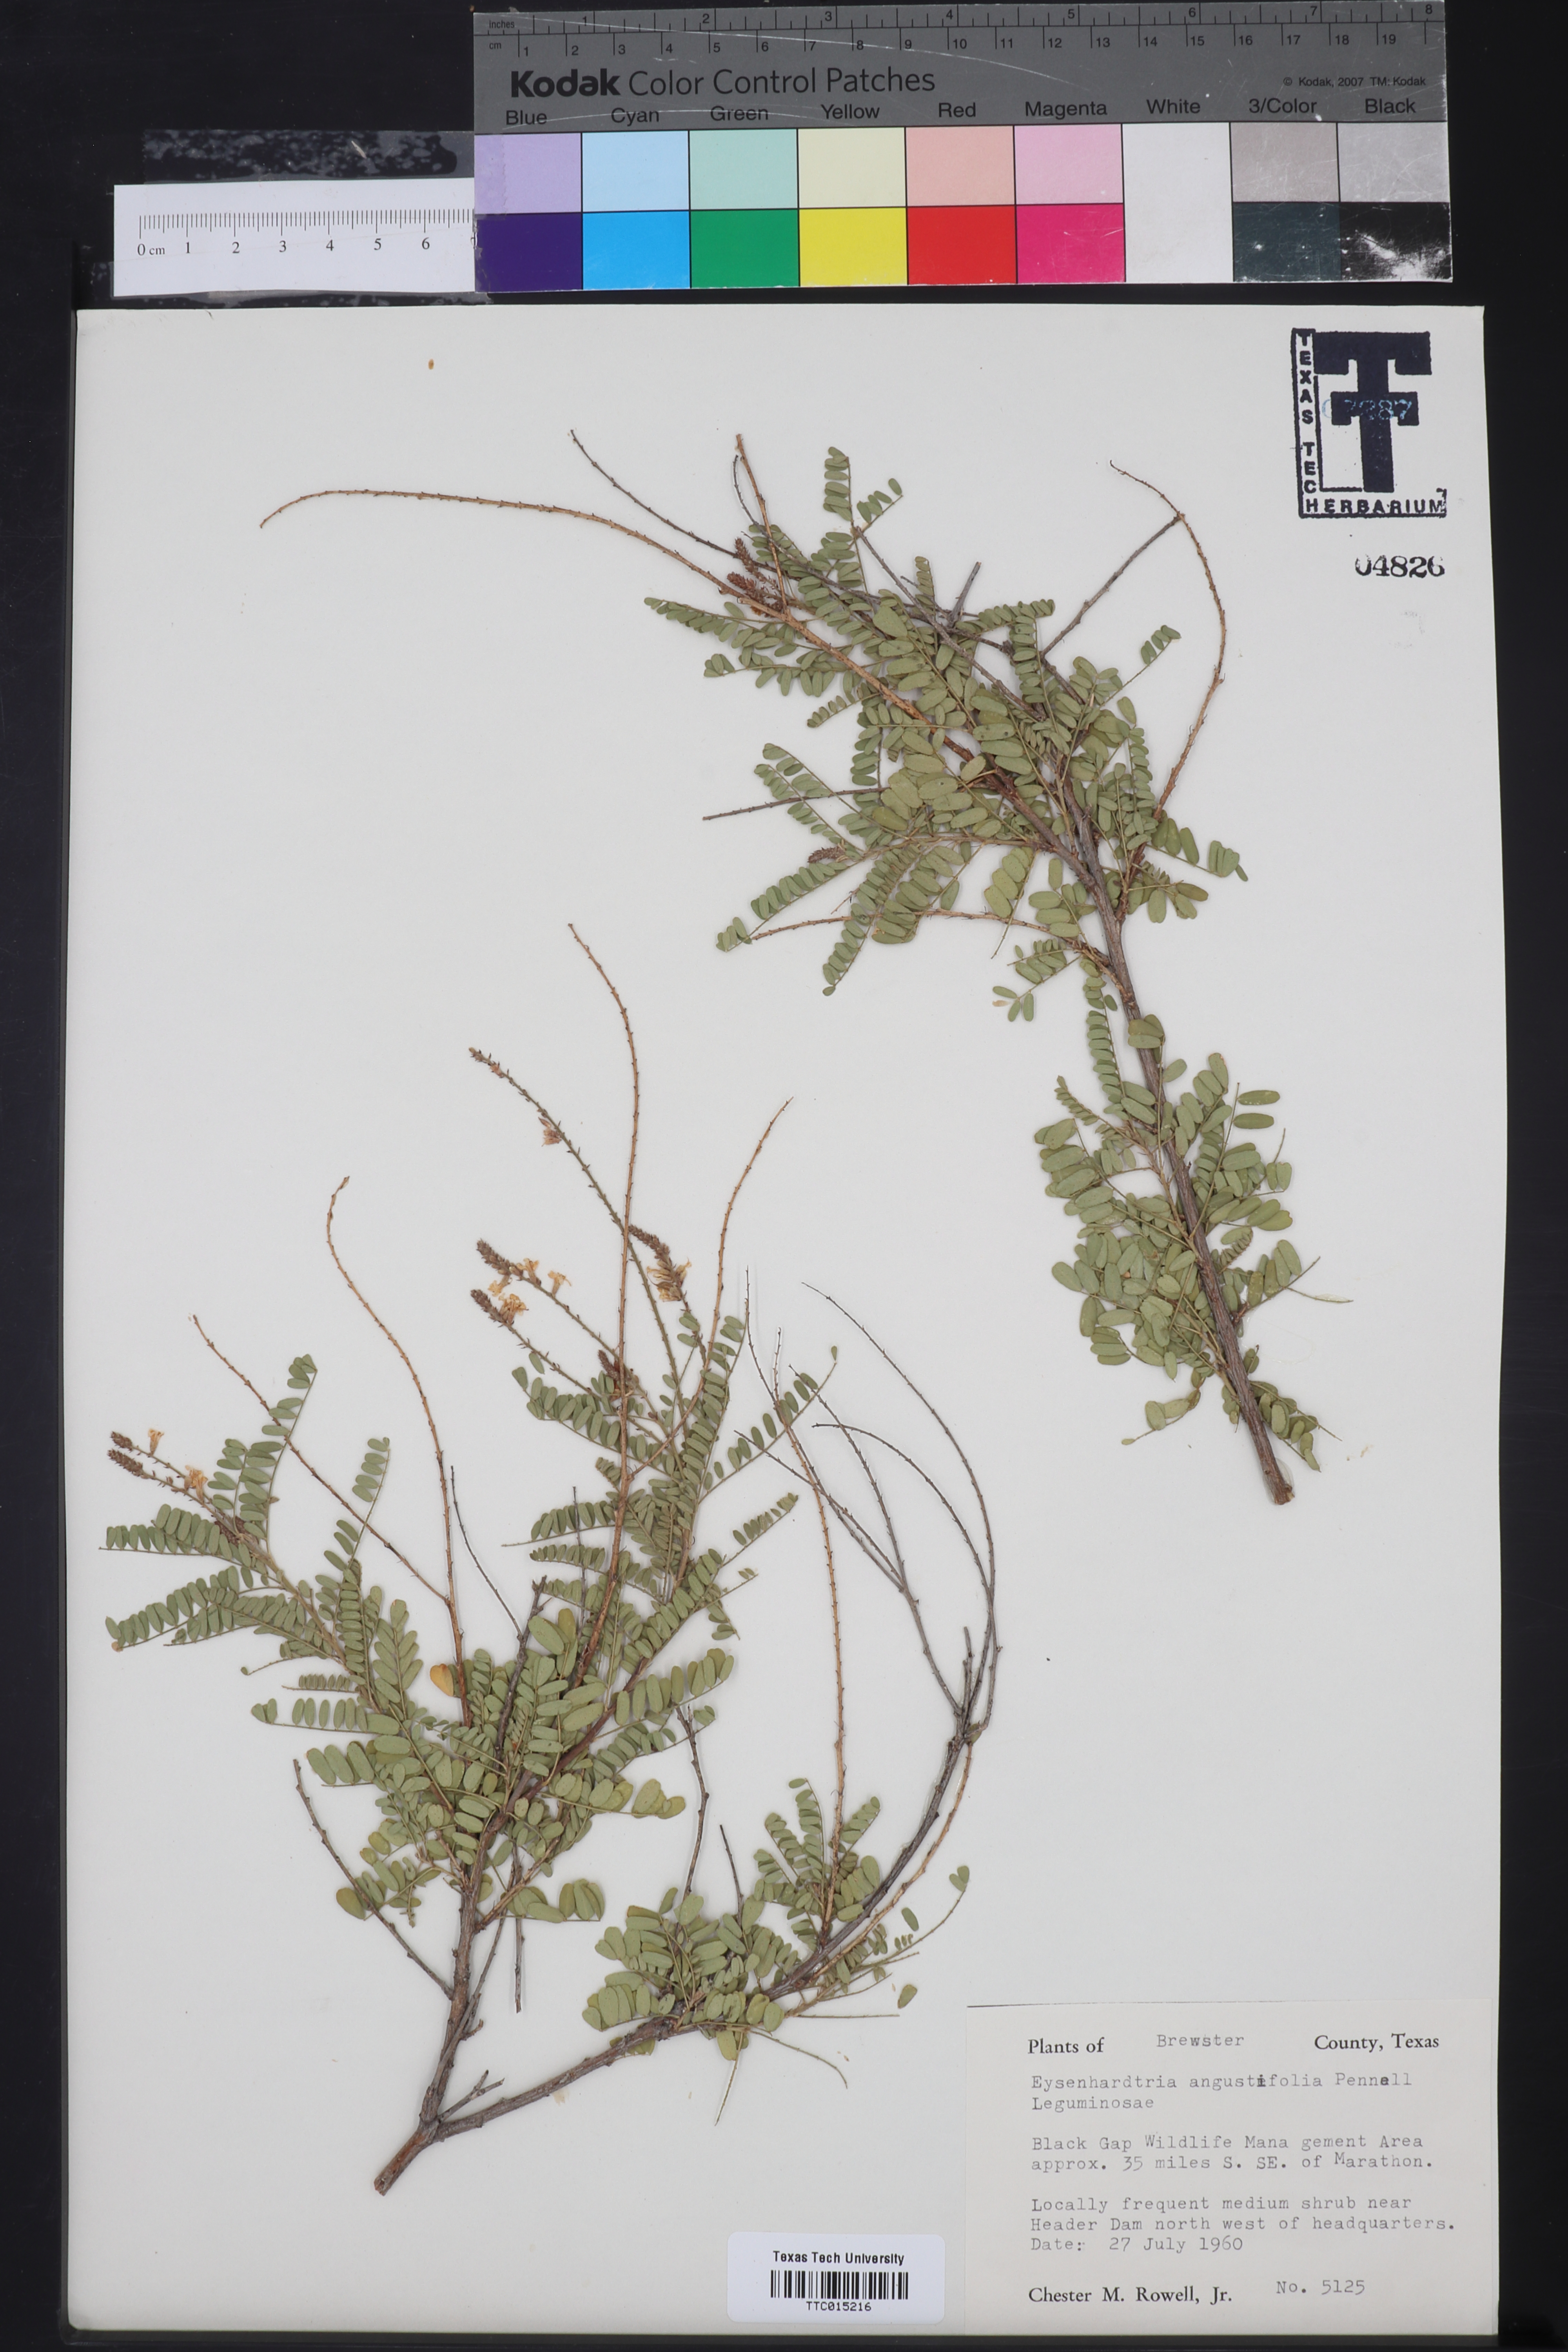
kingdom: Plantae
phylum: Tracheophyta
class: Magnoliopsida
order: Fabales
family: Fabaceae
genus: Eysenhardtia
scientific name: Eysenhardtia texana
